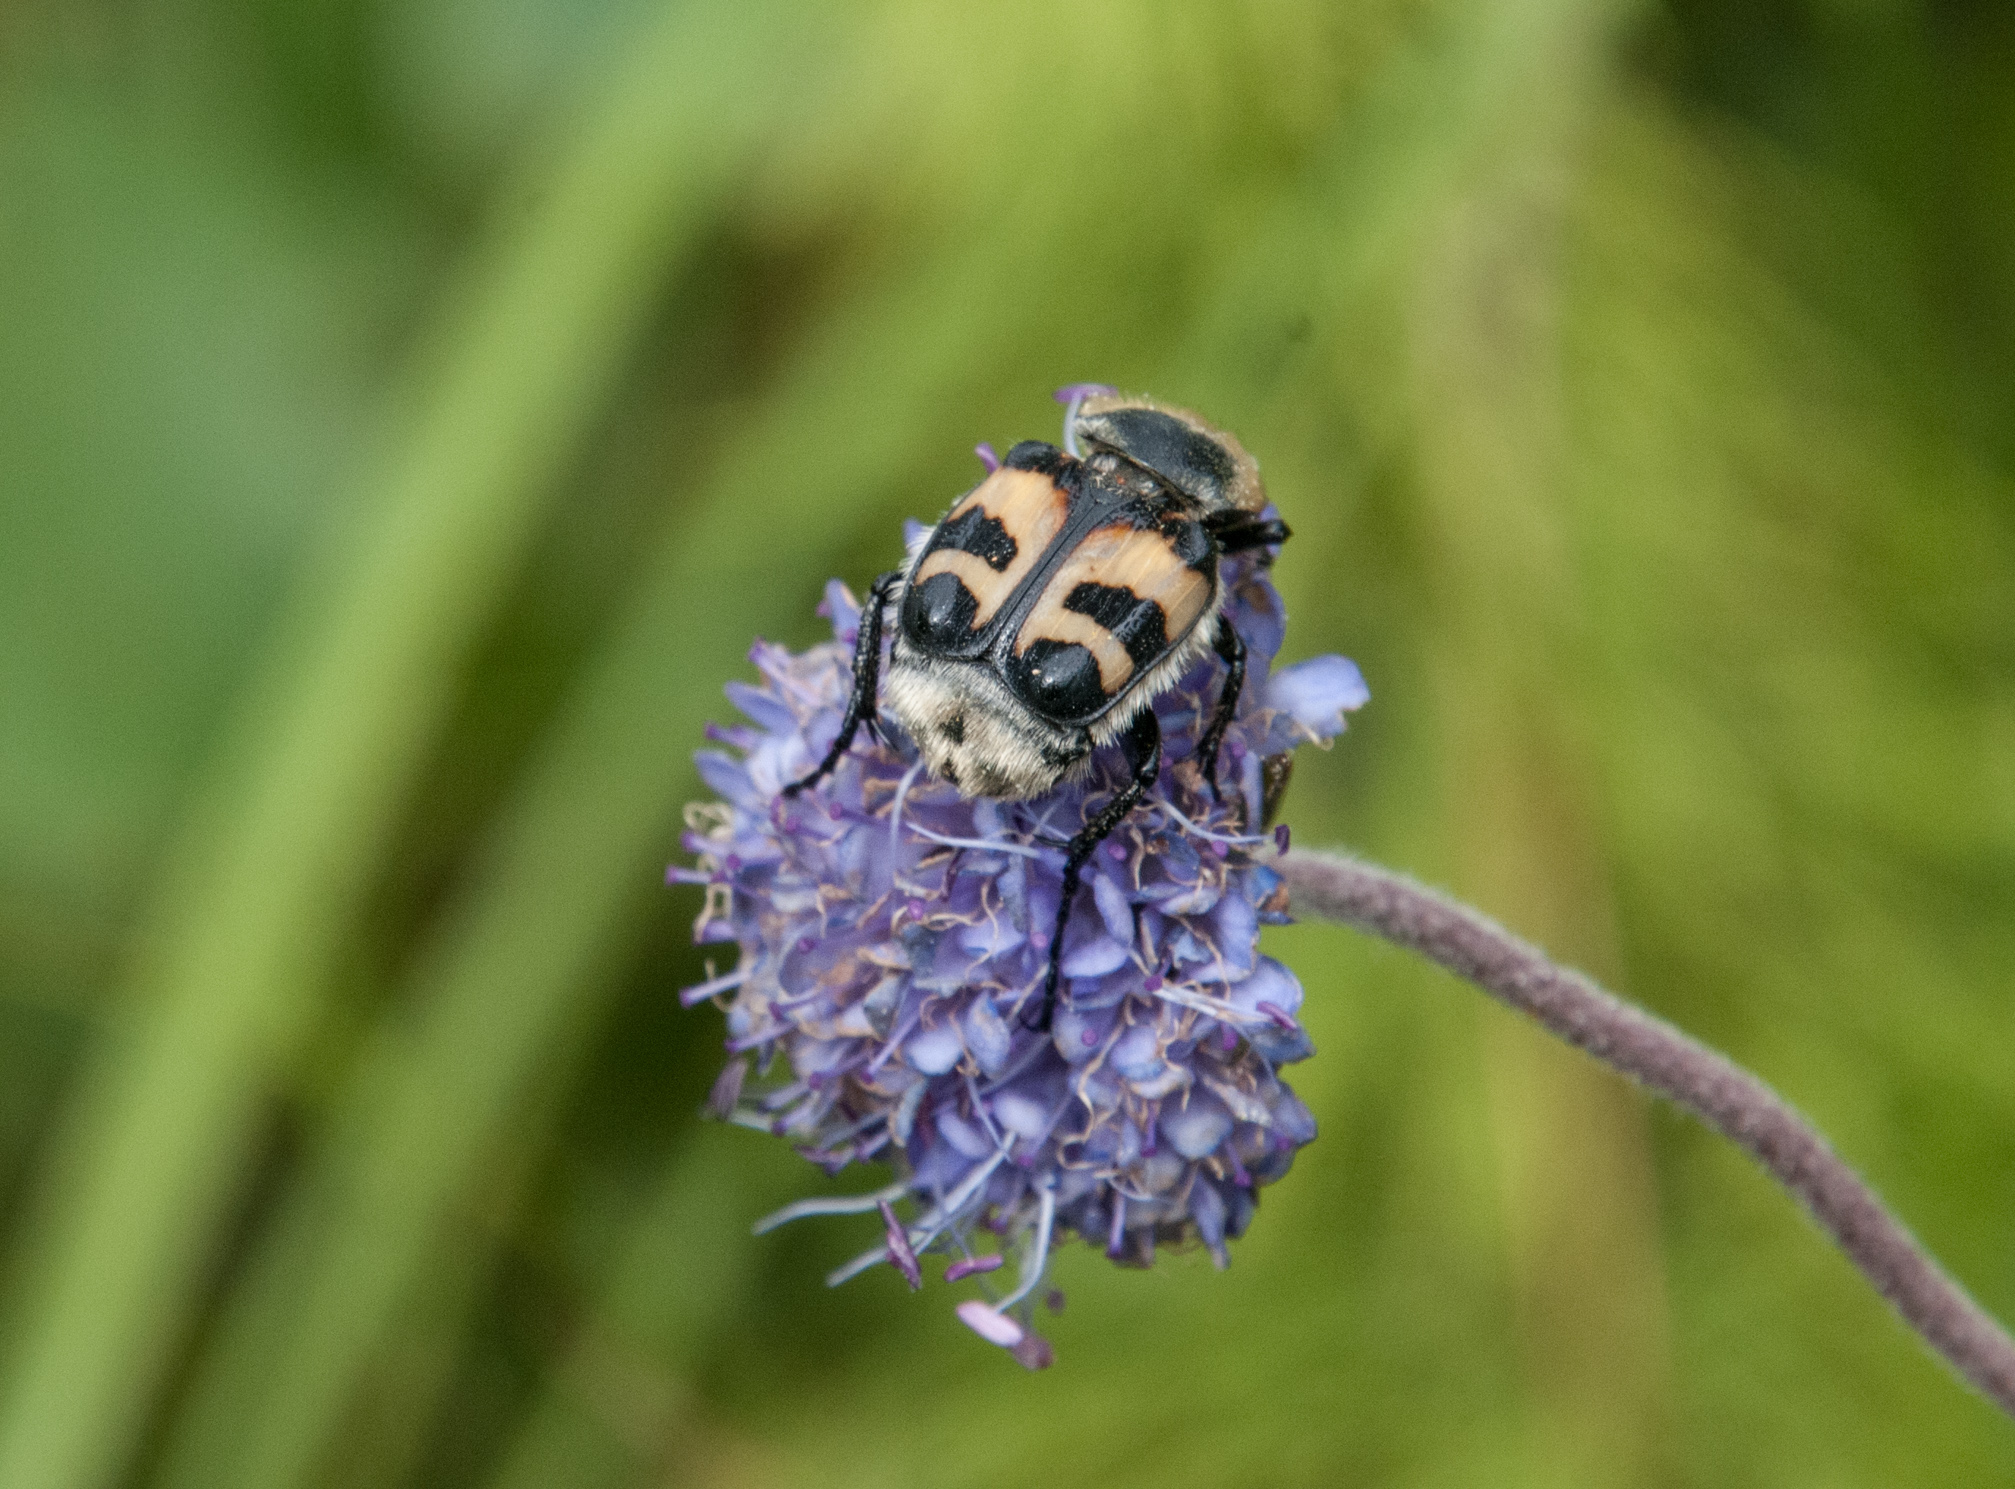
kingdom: Animalia
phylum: Arthropoda
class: Insecta
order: Coleoptera
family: Scarabaeidae
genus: Trichius
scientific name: Trichius fasciatus
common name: Bee beetle
